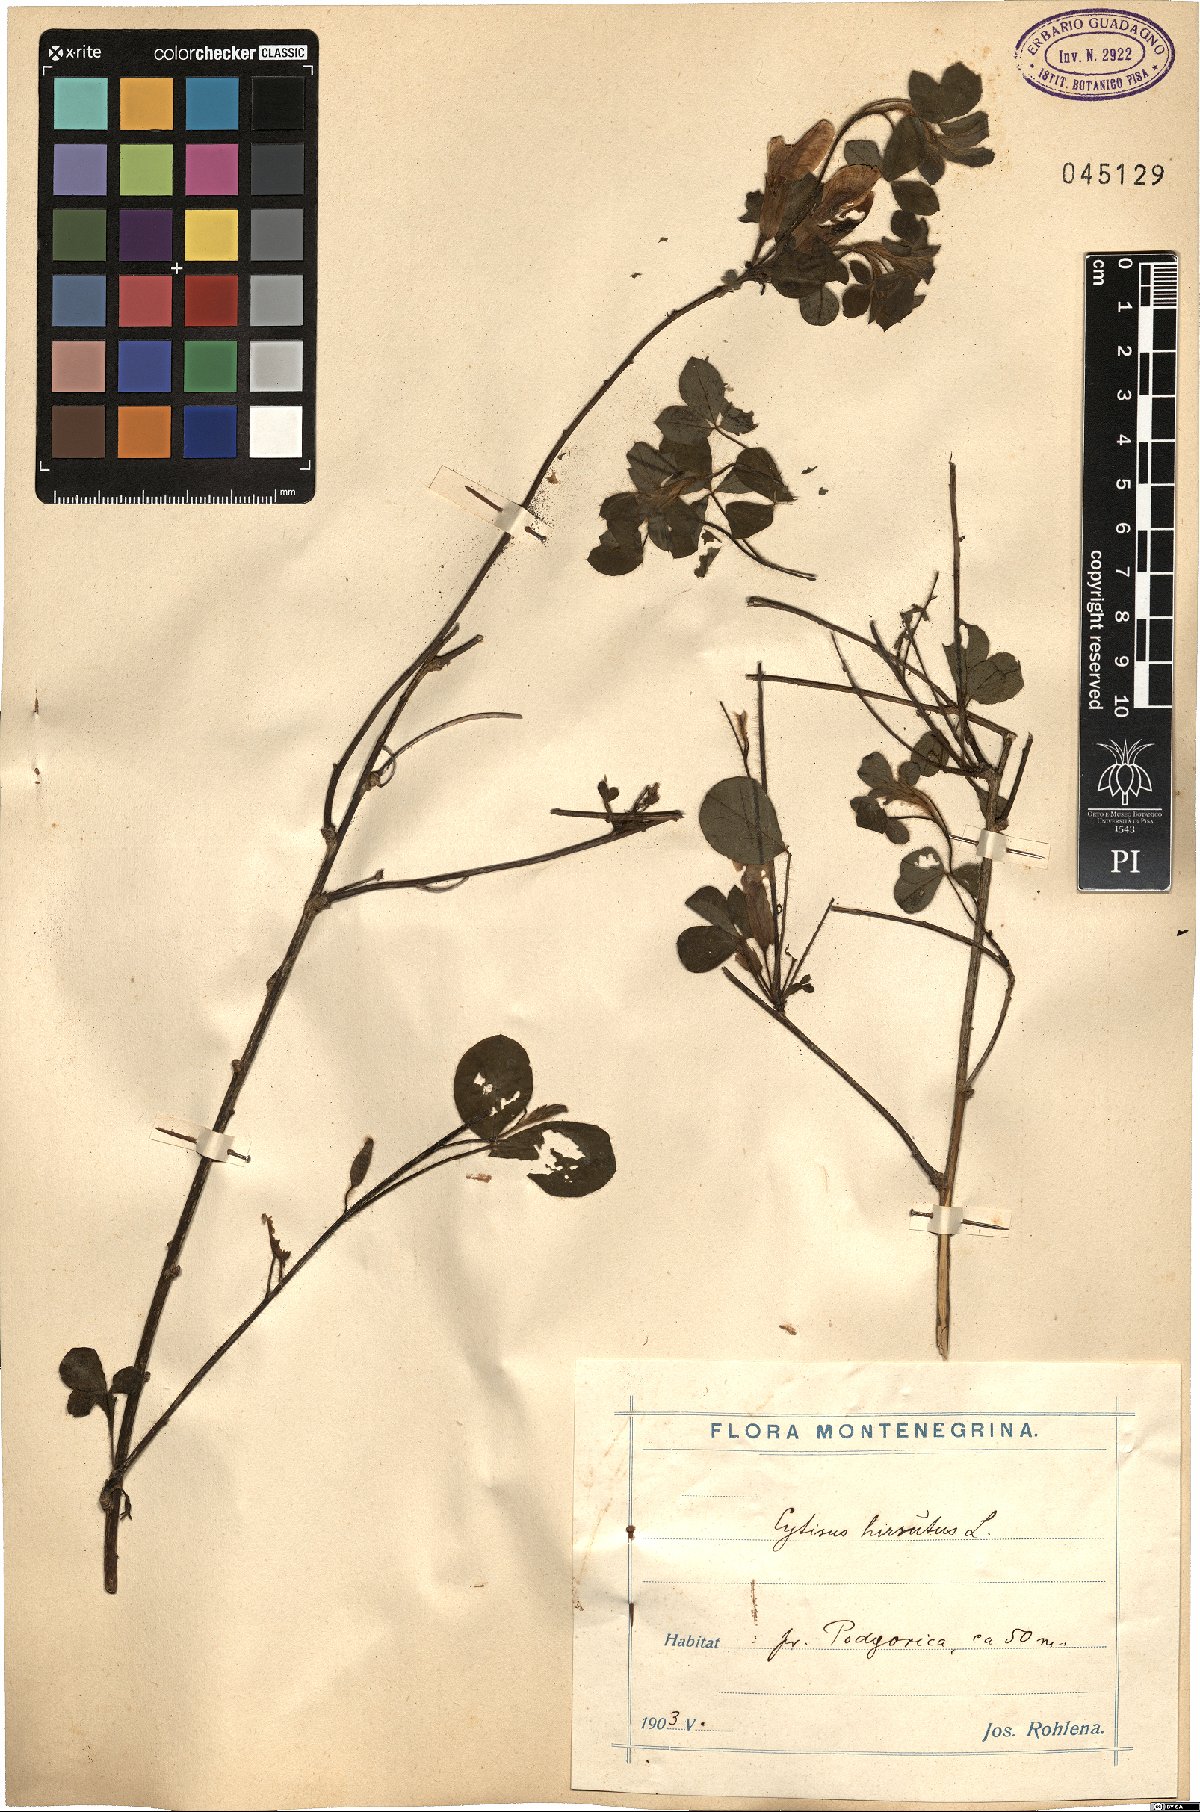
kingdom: Plantae
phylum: Tracheophyta
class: Magnoliopsida
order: Fabales
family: Fabaceae
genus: Chamaecytisus
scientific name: Chamaecytisus hirsutus
